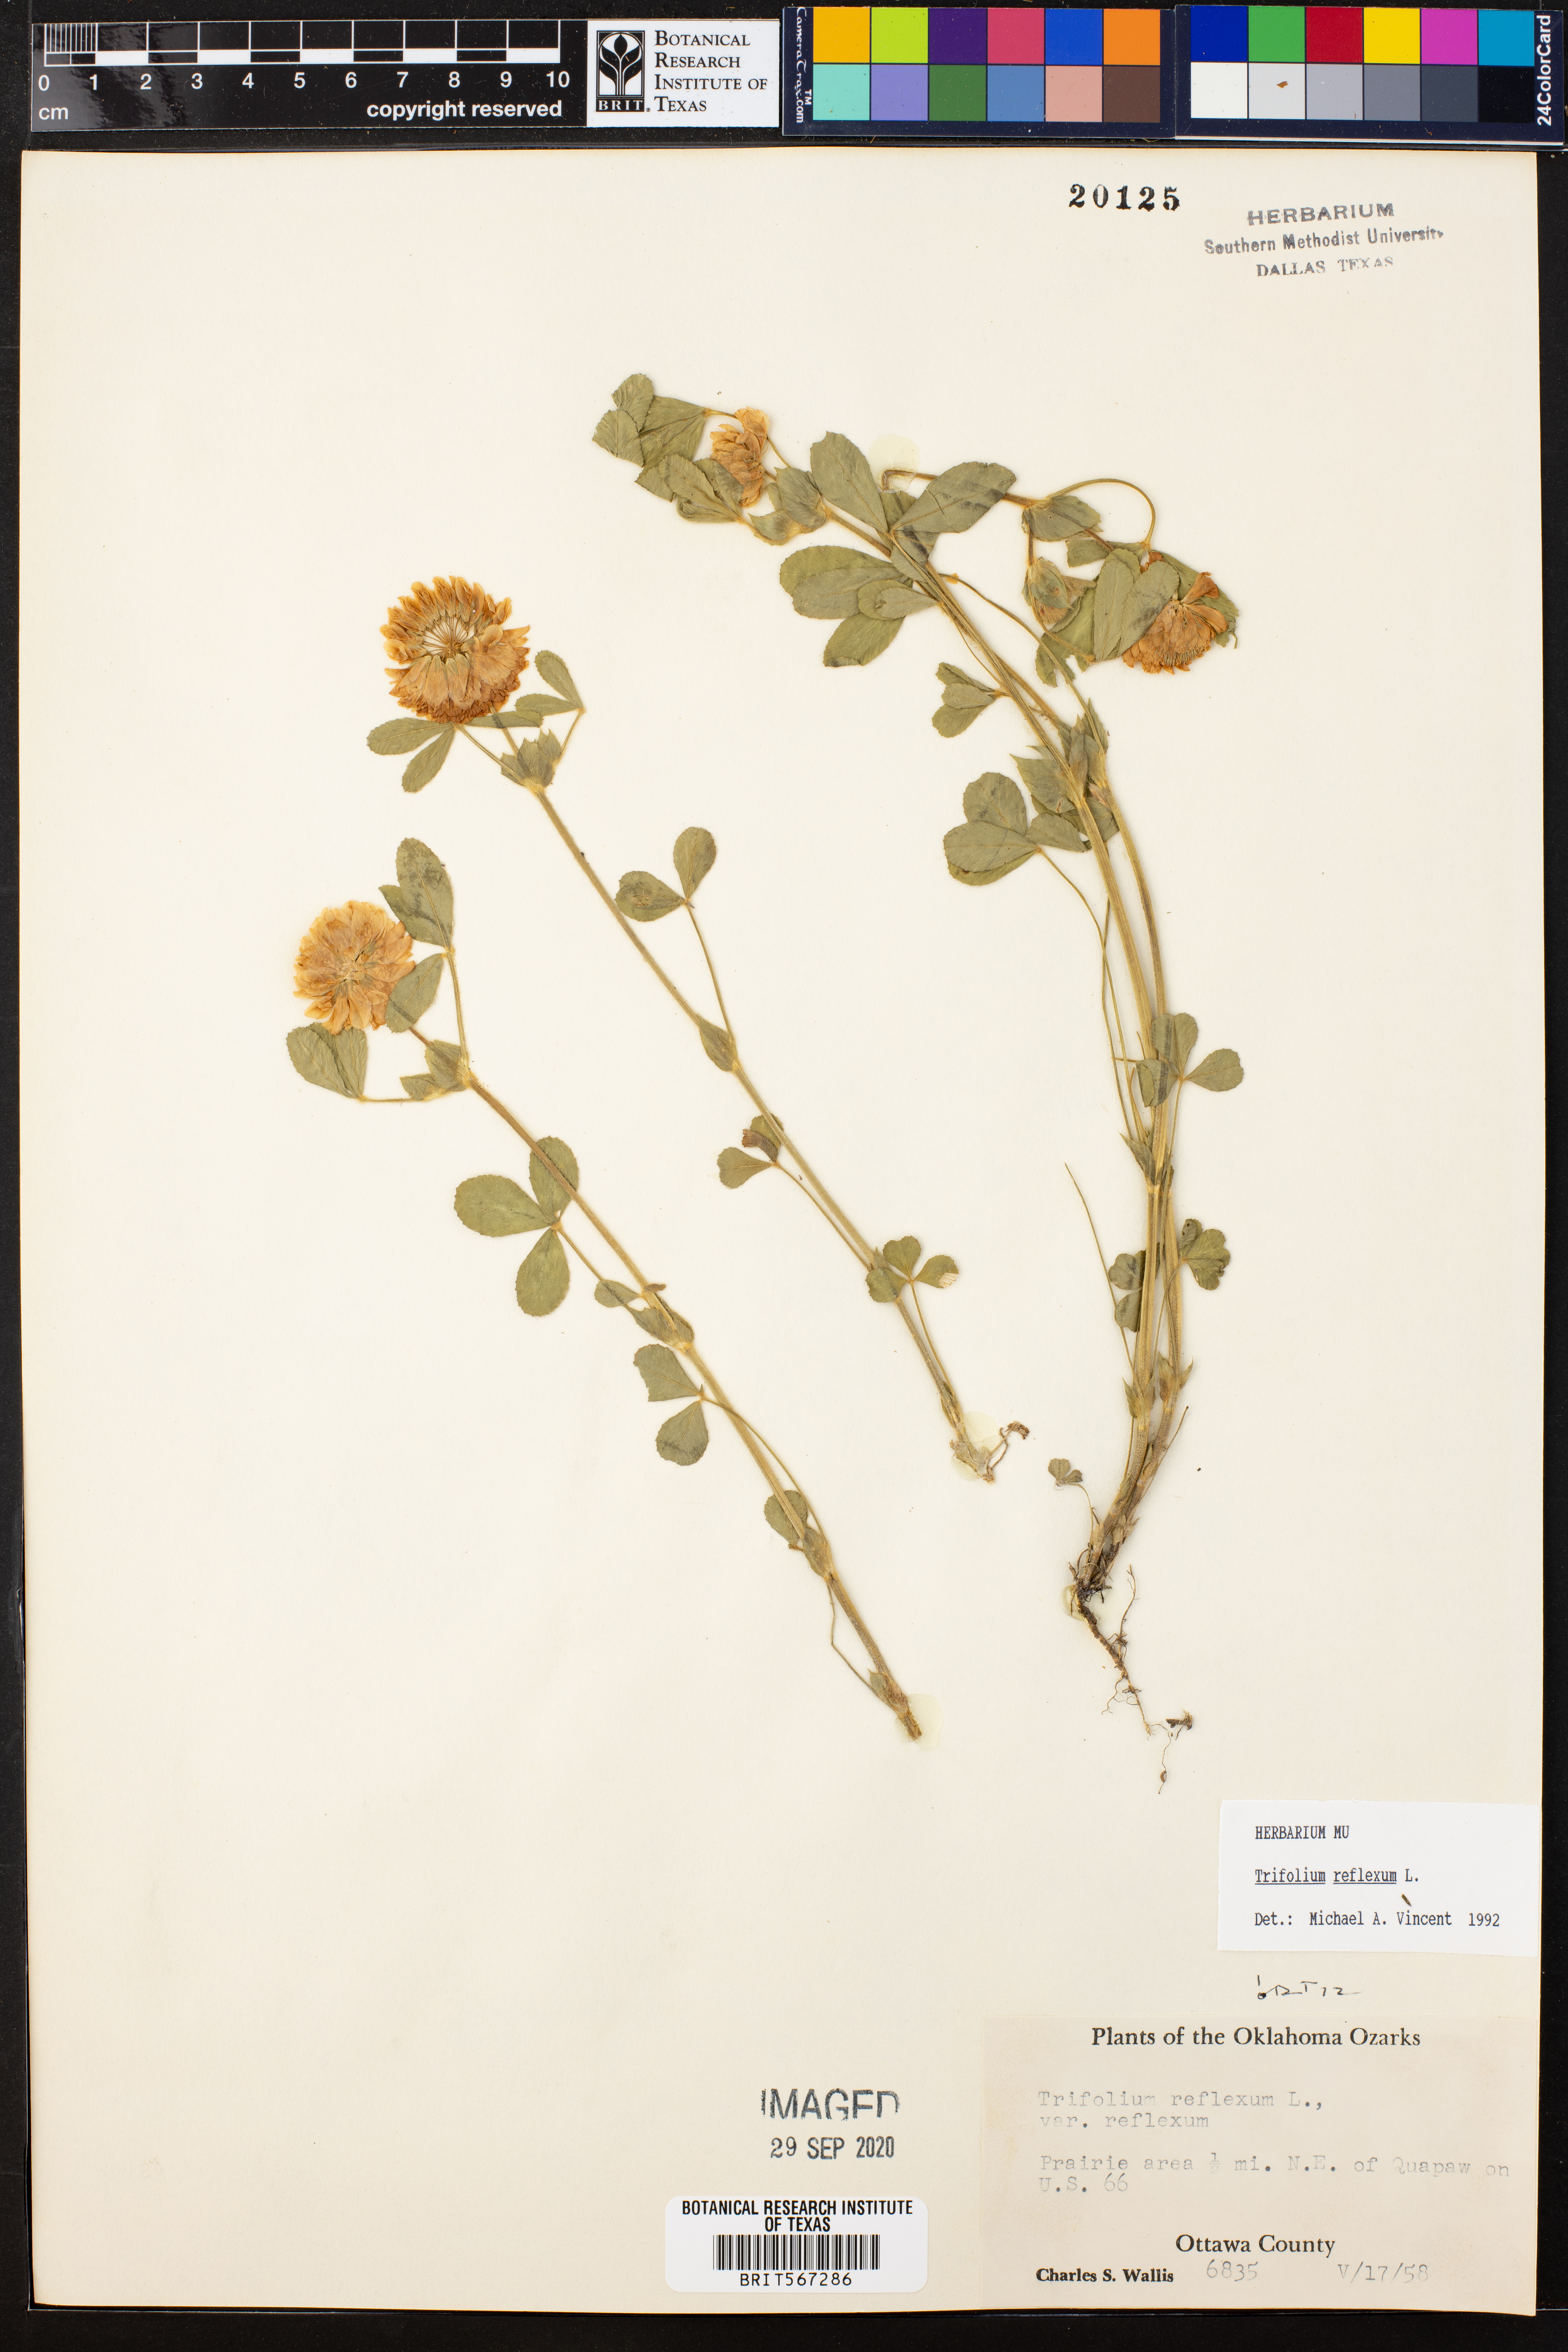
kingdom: Plantae
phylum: Tracheophyta
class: Magnoliopsida
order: Fabales
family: Fabaceae
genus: Trifolium
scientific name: Trifolium reflexum
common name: Buffalo clover
